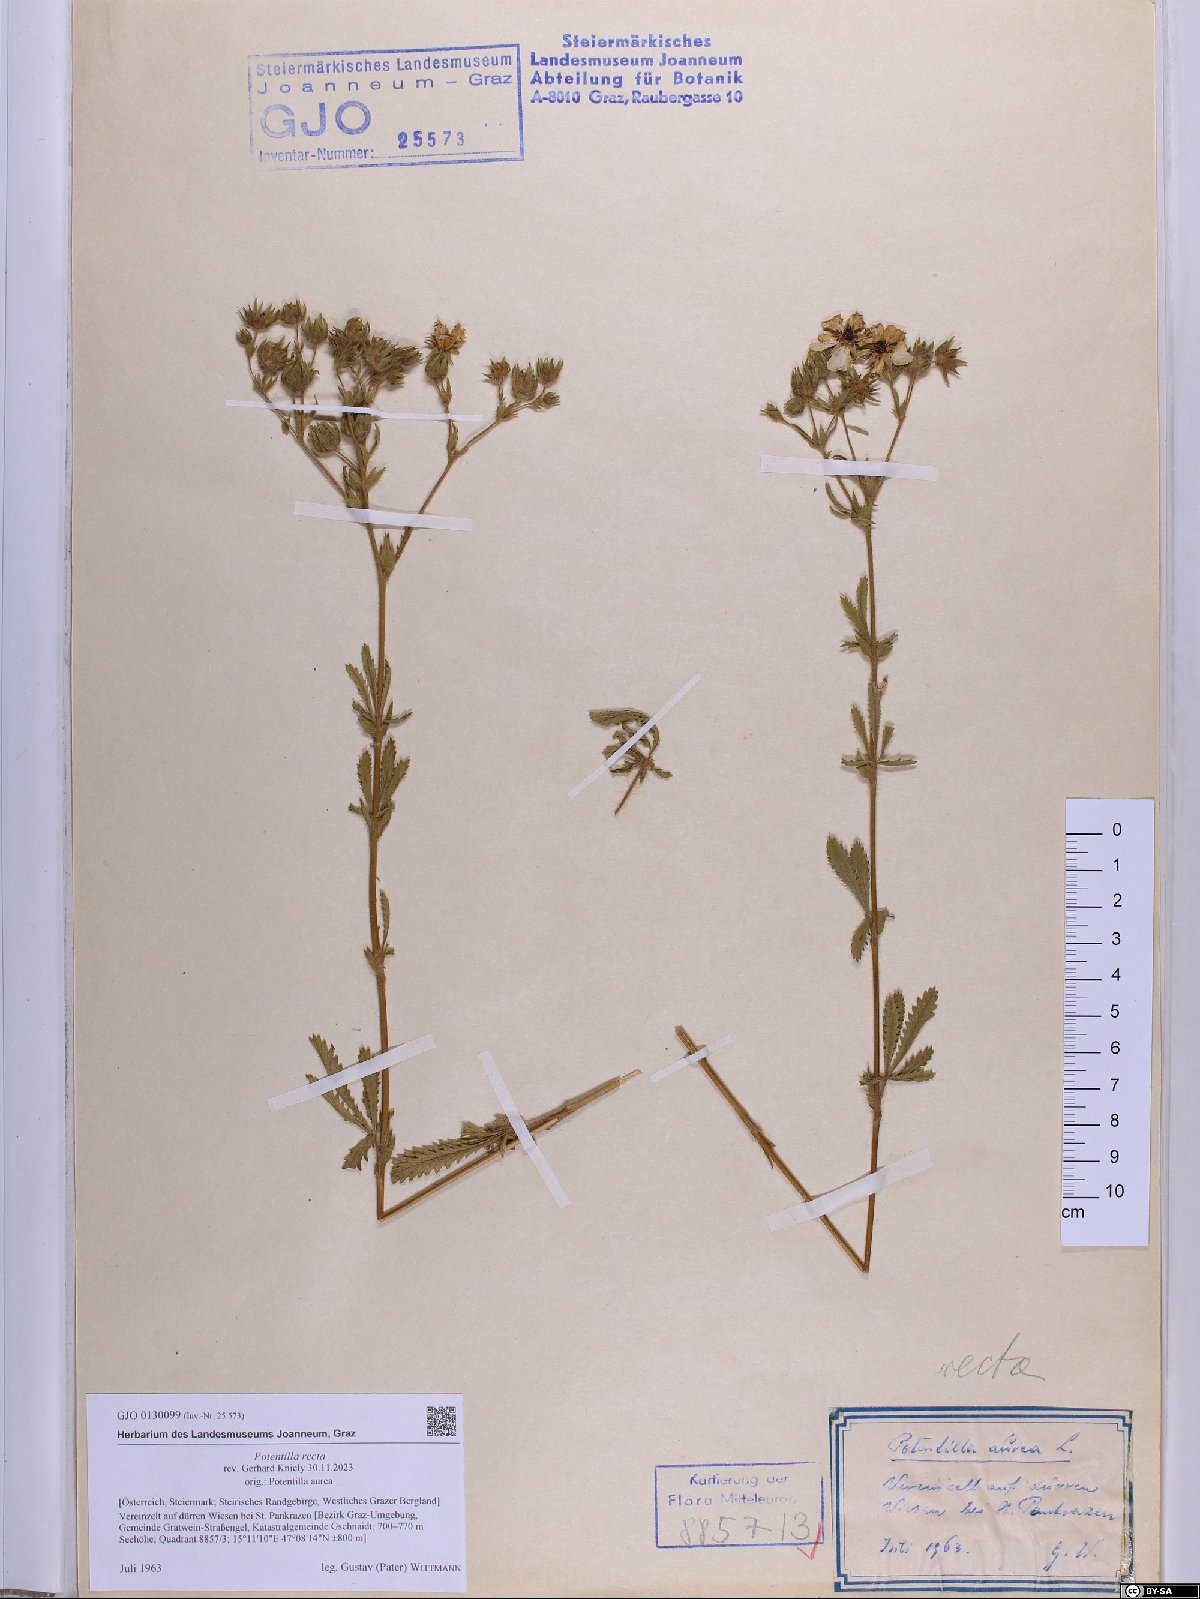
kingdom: Plantae
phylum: Tracheophyta
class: Magnoliopsida
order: Rosales
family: Rosaceae
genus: Potentilla
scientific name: Potentilla recta
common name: Sulphur cinquefoil
